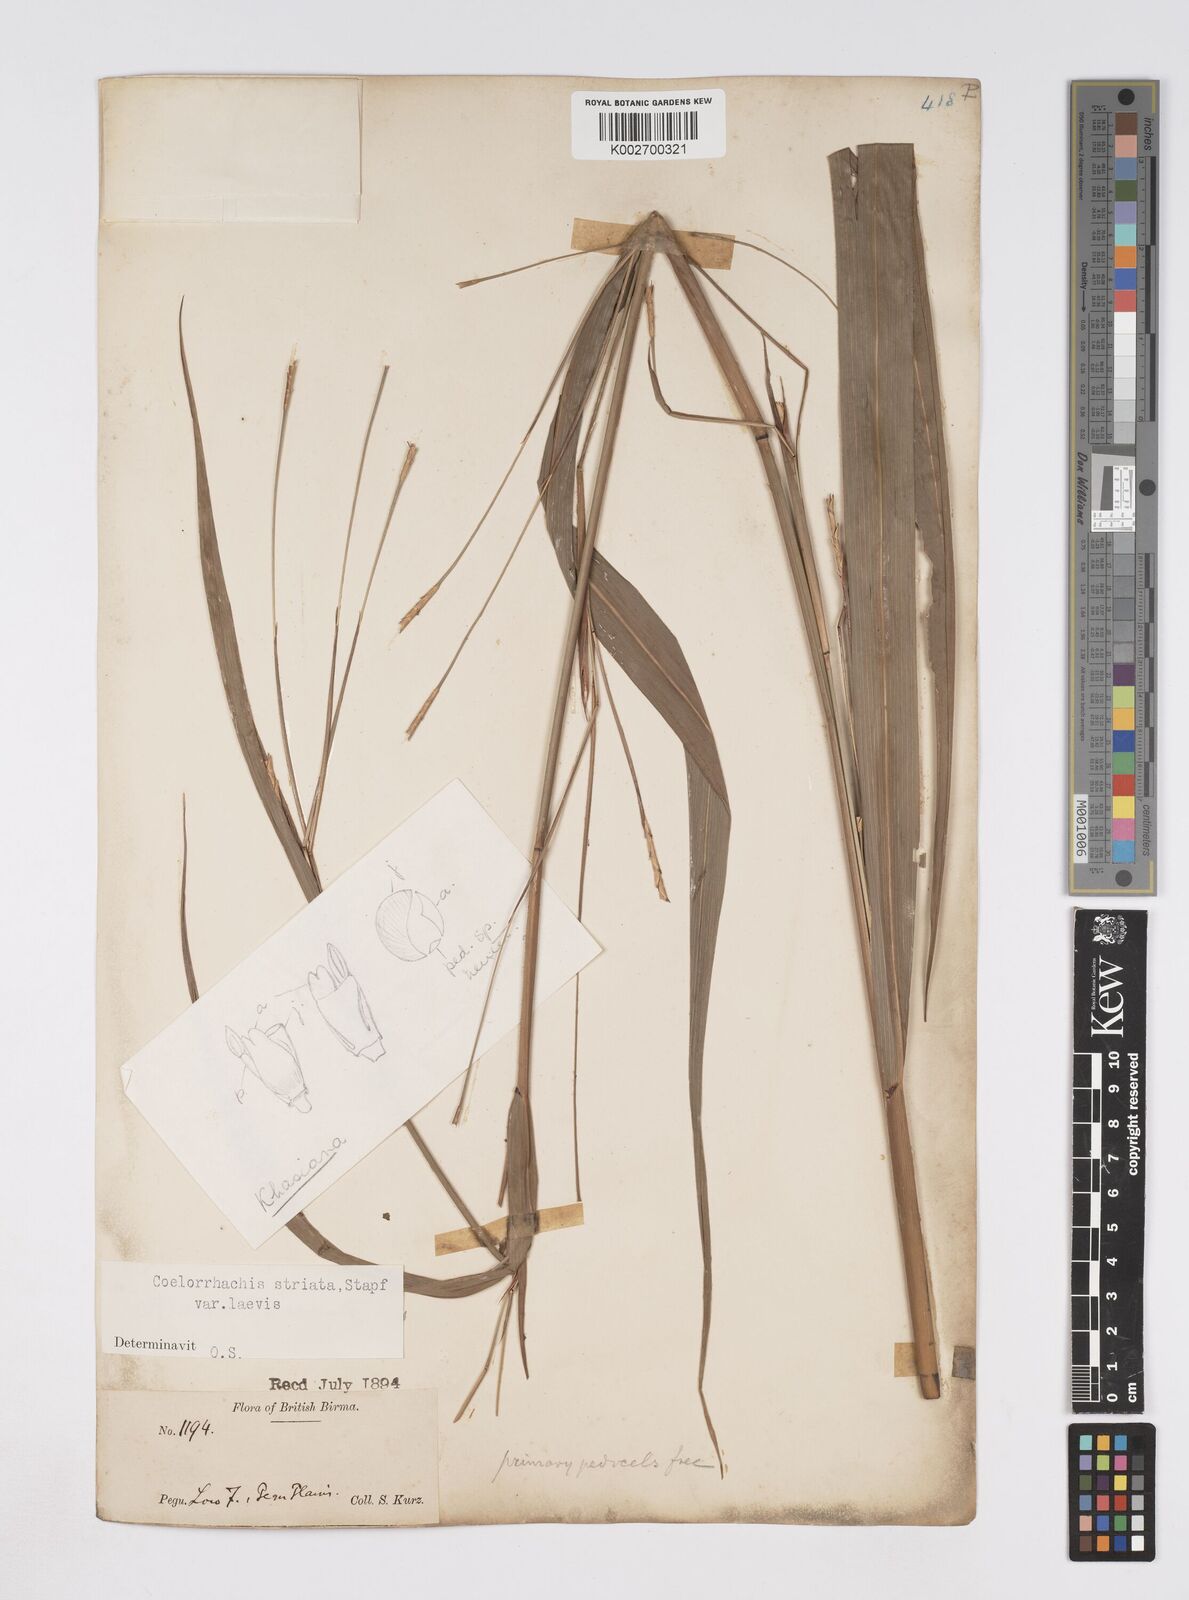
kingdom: Plantae
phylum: Tracheophyta
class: Liliopsida
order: Poales
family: Poaceae
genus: Rottboellia
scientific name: Rottboellia striata
